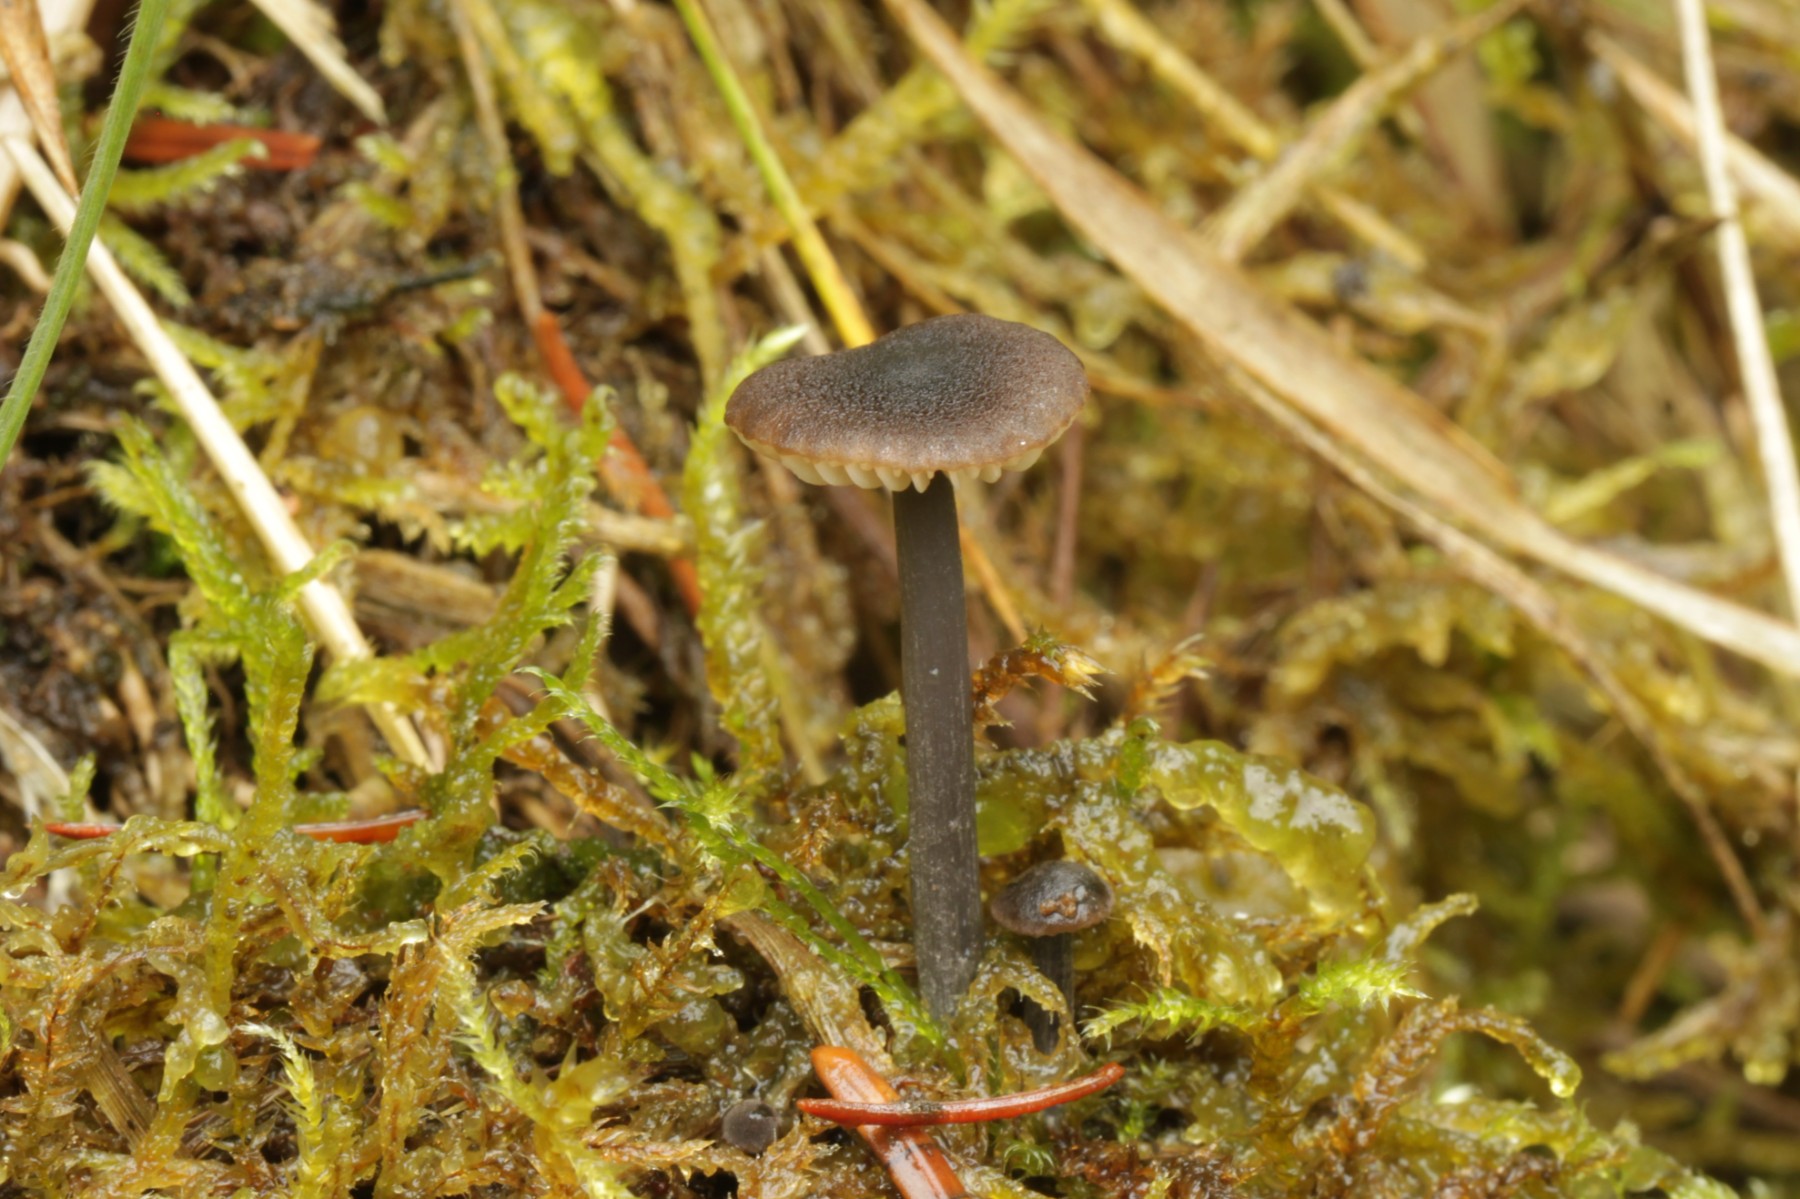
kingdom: Fungi
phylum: Basidiomycota
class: Agaricomycetes
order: Agaricales
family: Entolomataceae
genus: Entoloma
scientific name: Entoloma
